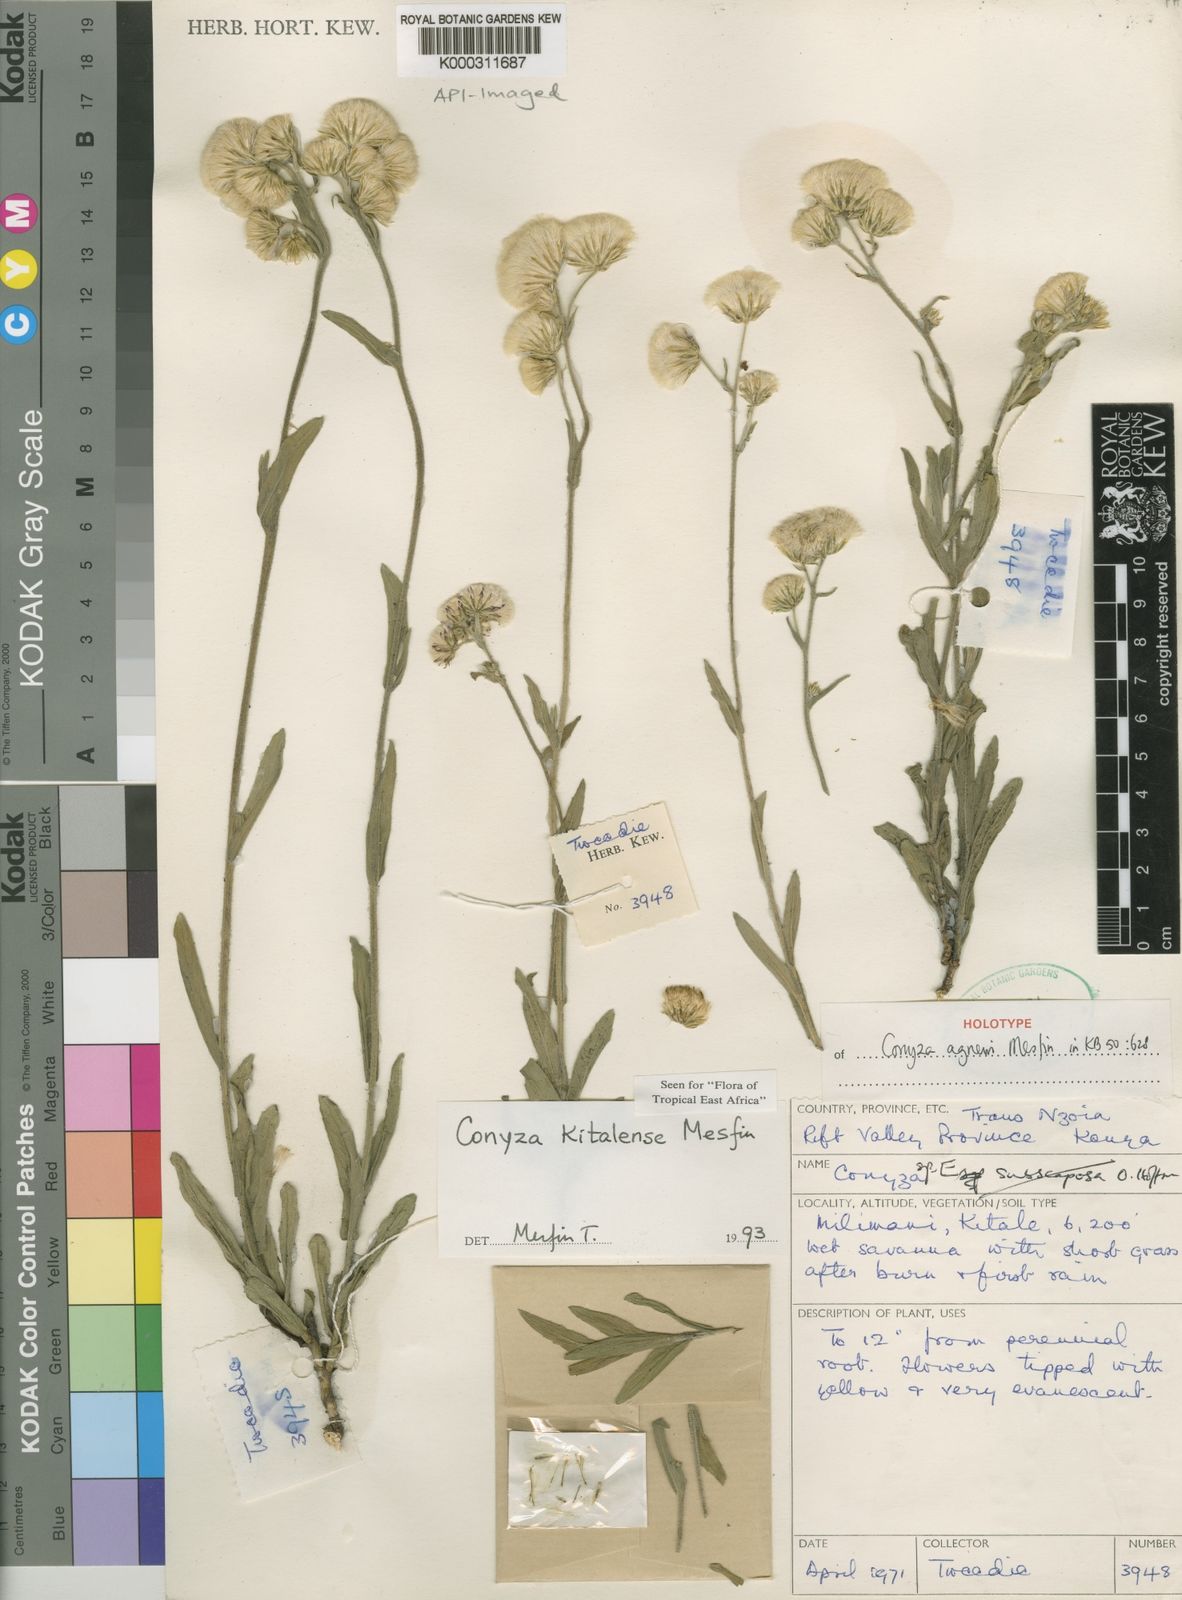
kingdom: Plantae
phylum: Tracheophyta
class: Magnoliopsida
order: Asterales
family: Asteraceae
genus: Conyza
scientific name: Conyza agnewii
